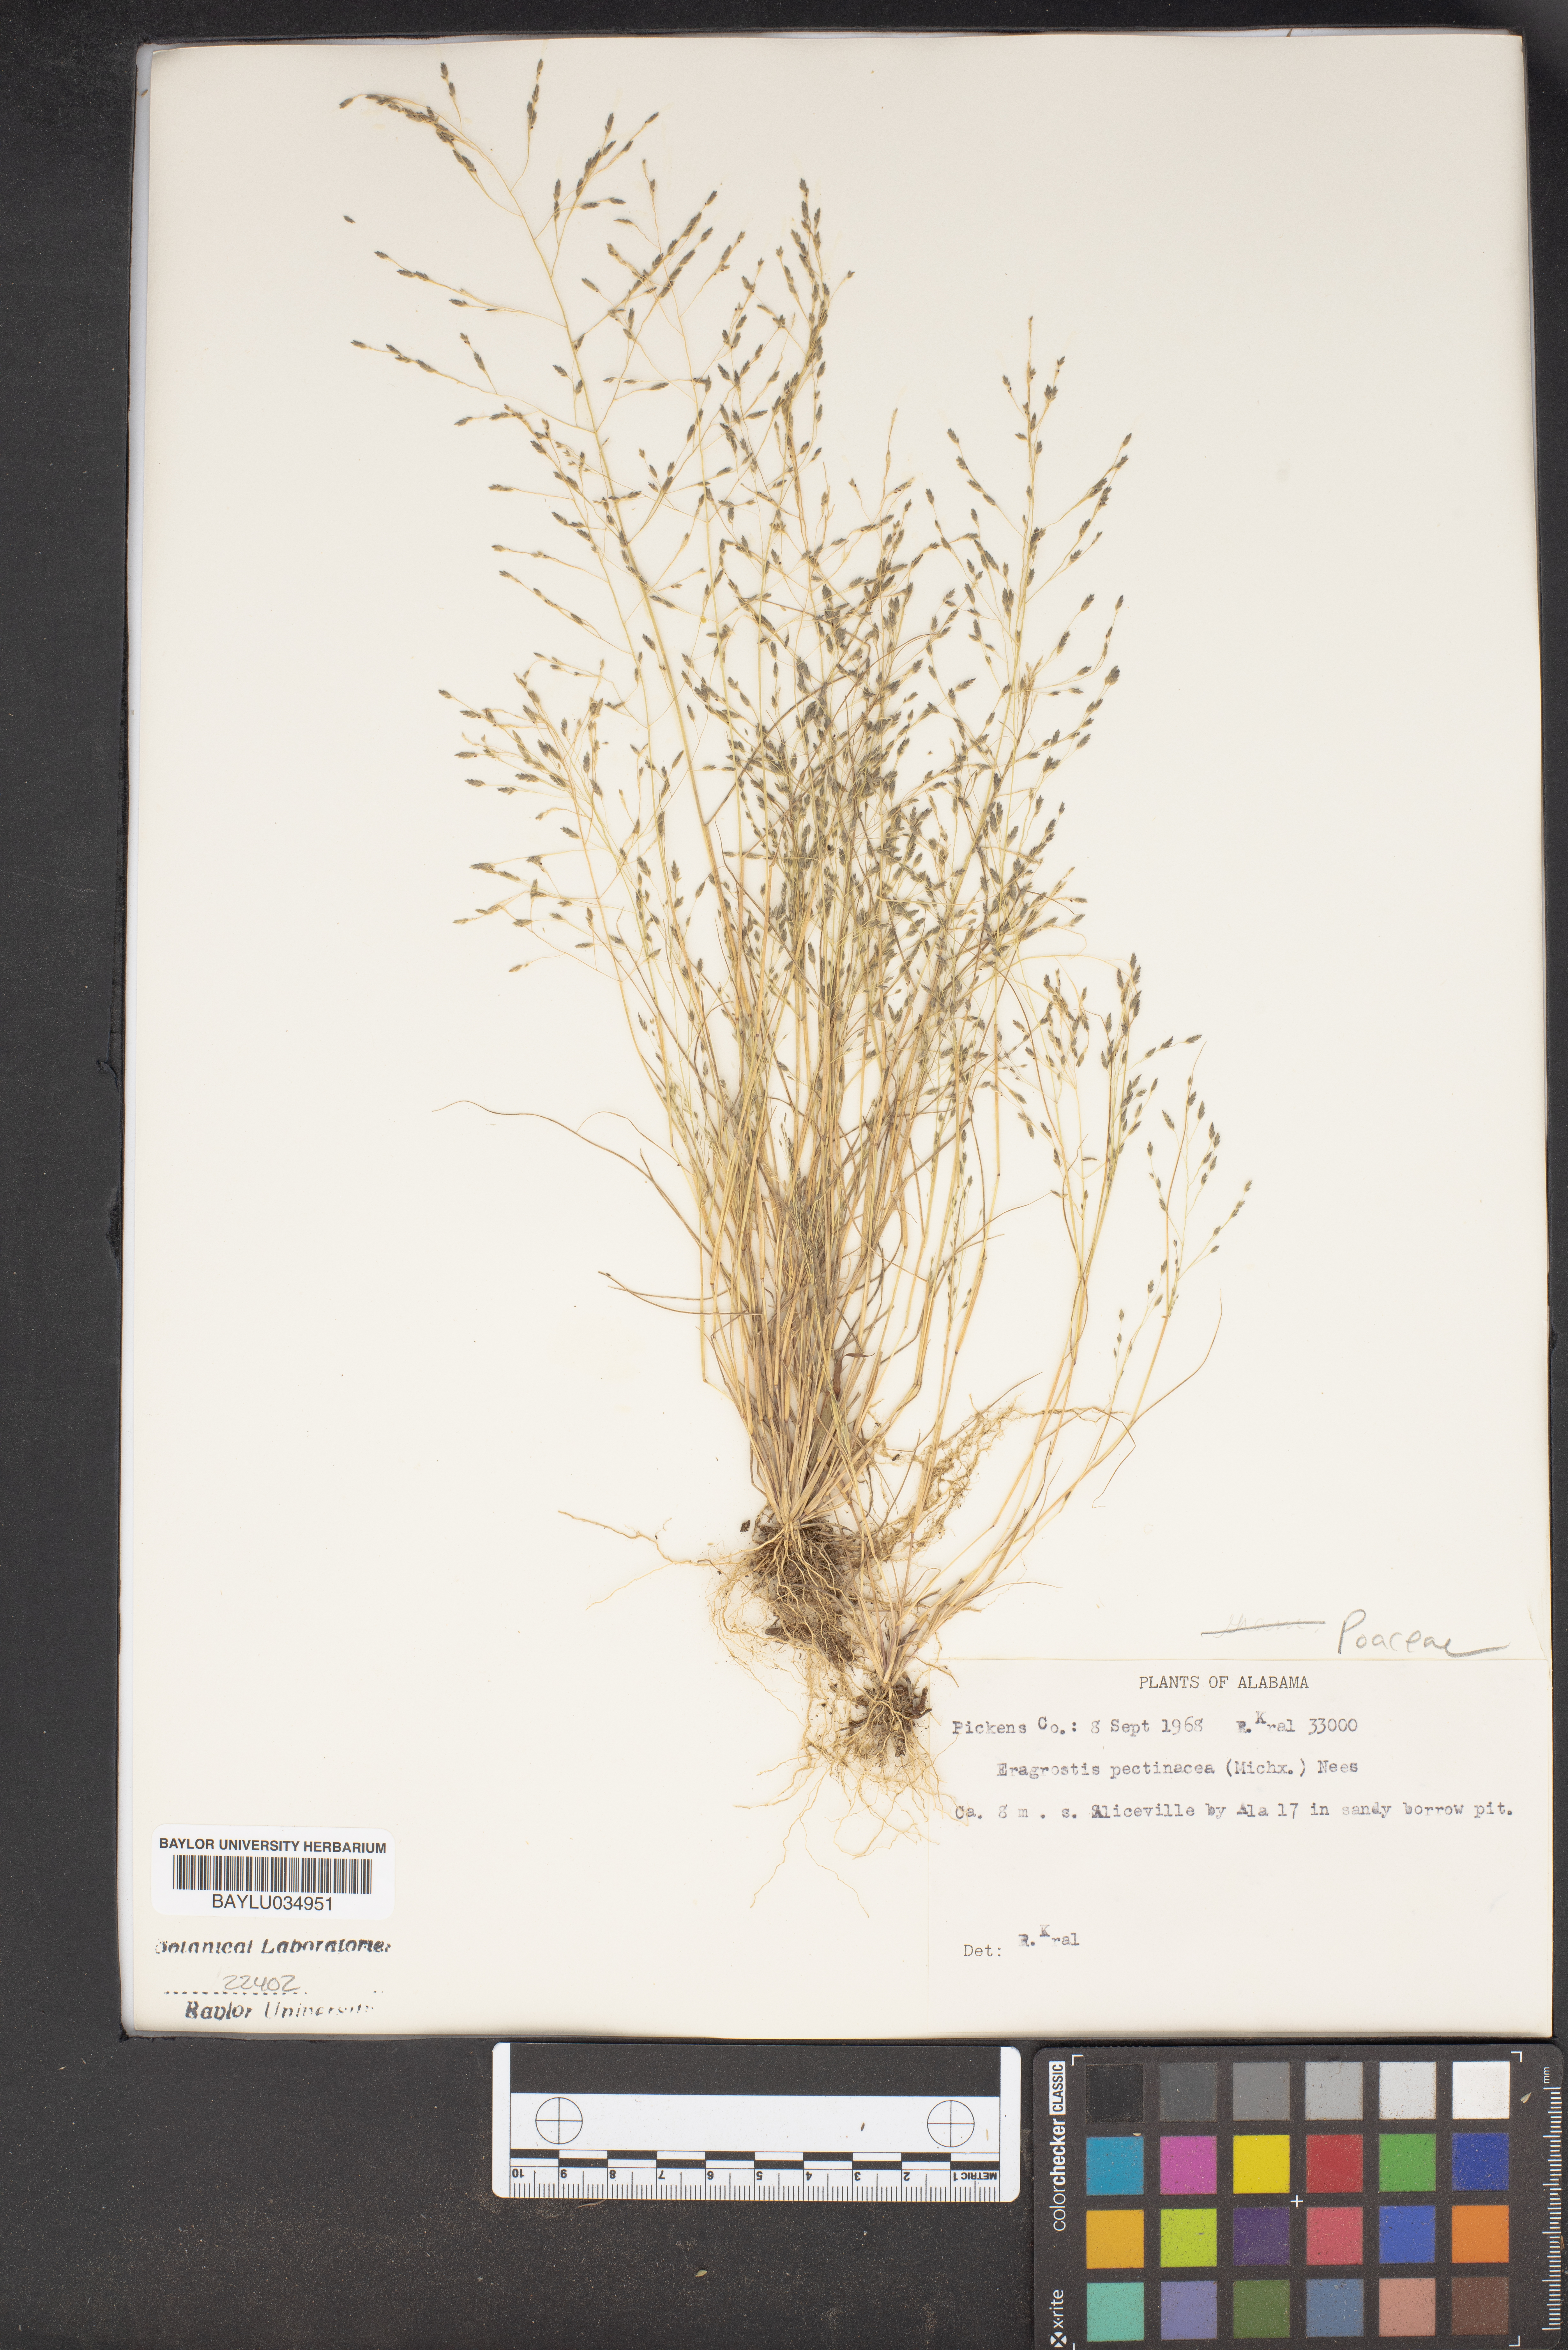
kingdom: Plantae
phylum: Tracheophyta
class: Liliopsida
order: Poales
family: Poaceae
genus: Eragrostis
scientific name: Eragrostis pectinacea
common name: Tufted lovegrass
